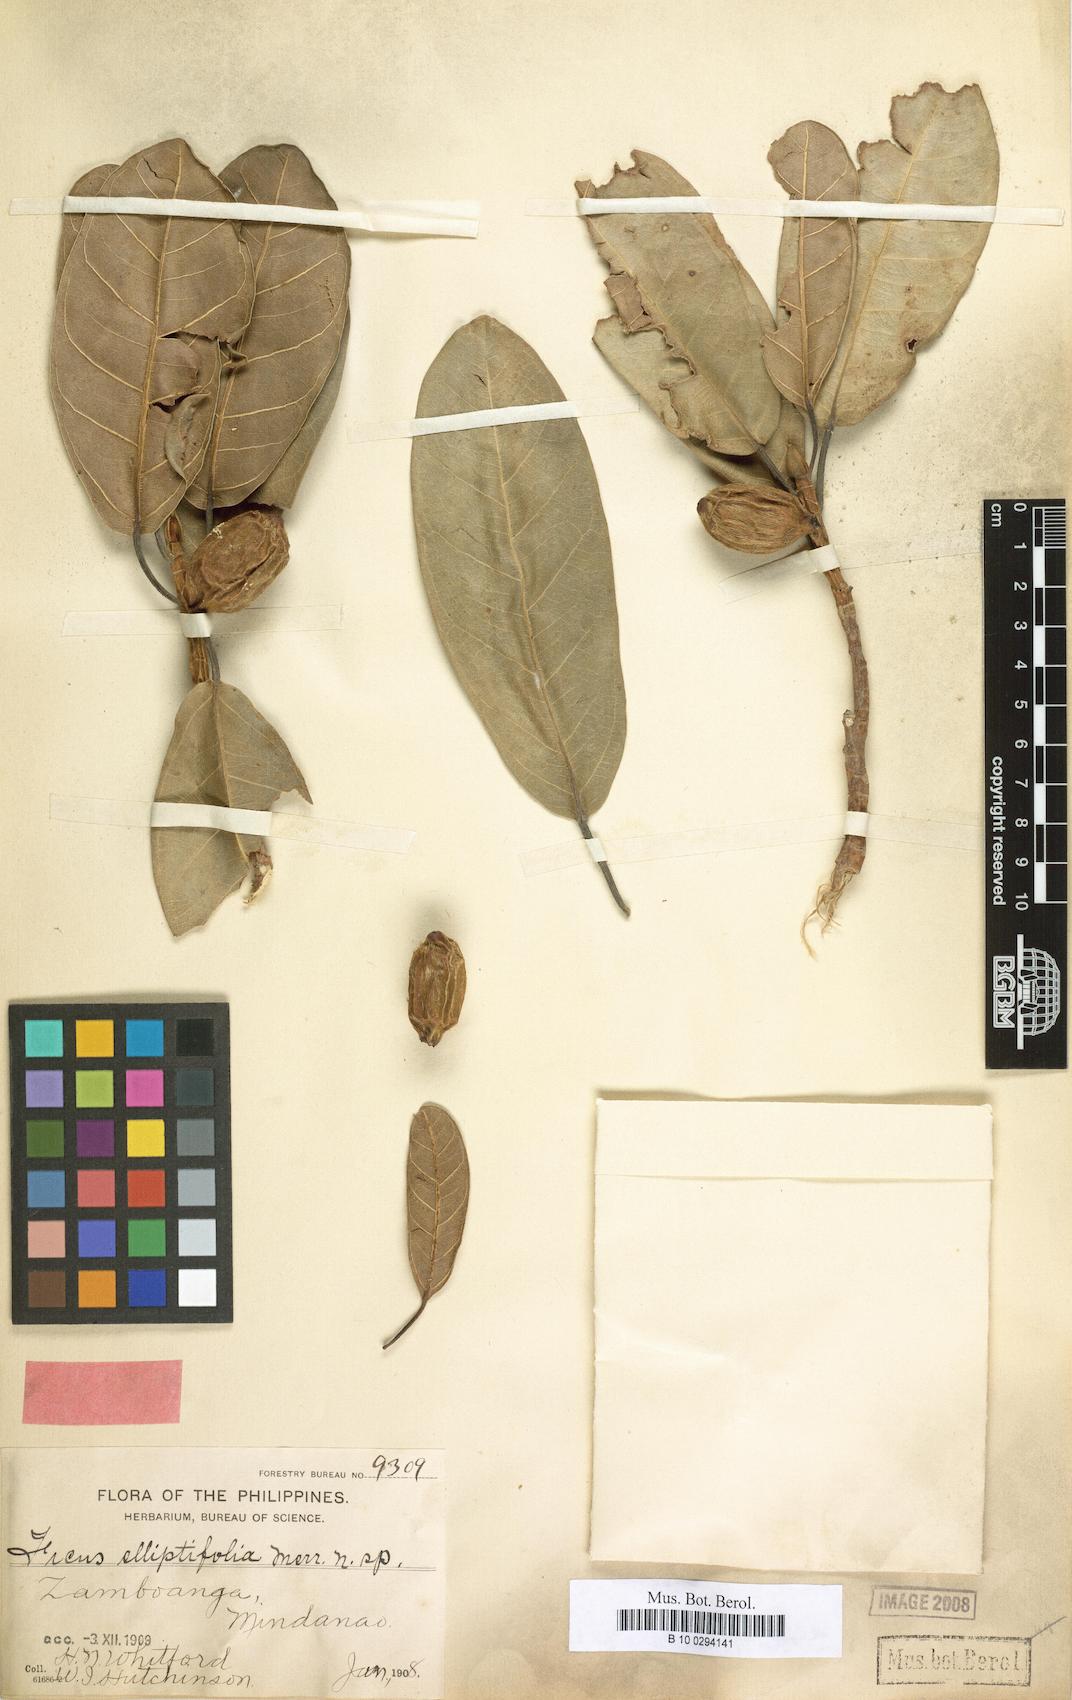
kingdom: Plantae
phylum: Tracheophyta
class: Magnoliopsida
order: Rosales
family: Moraceae
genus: Ficus
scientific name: Ficus cucurbitina
